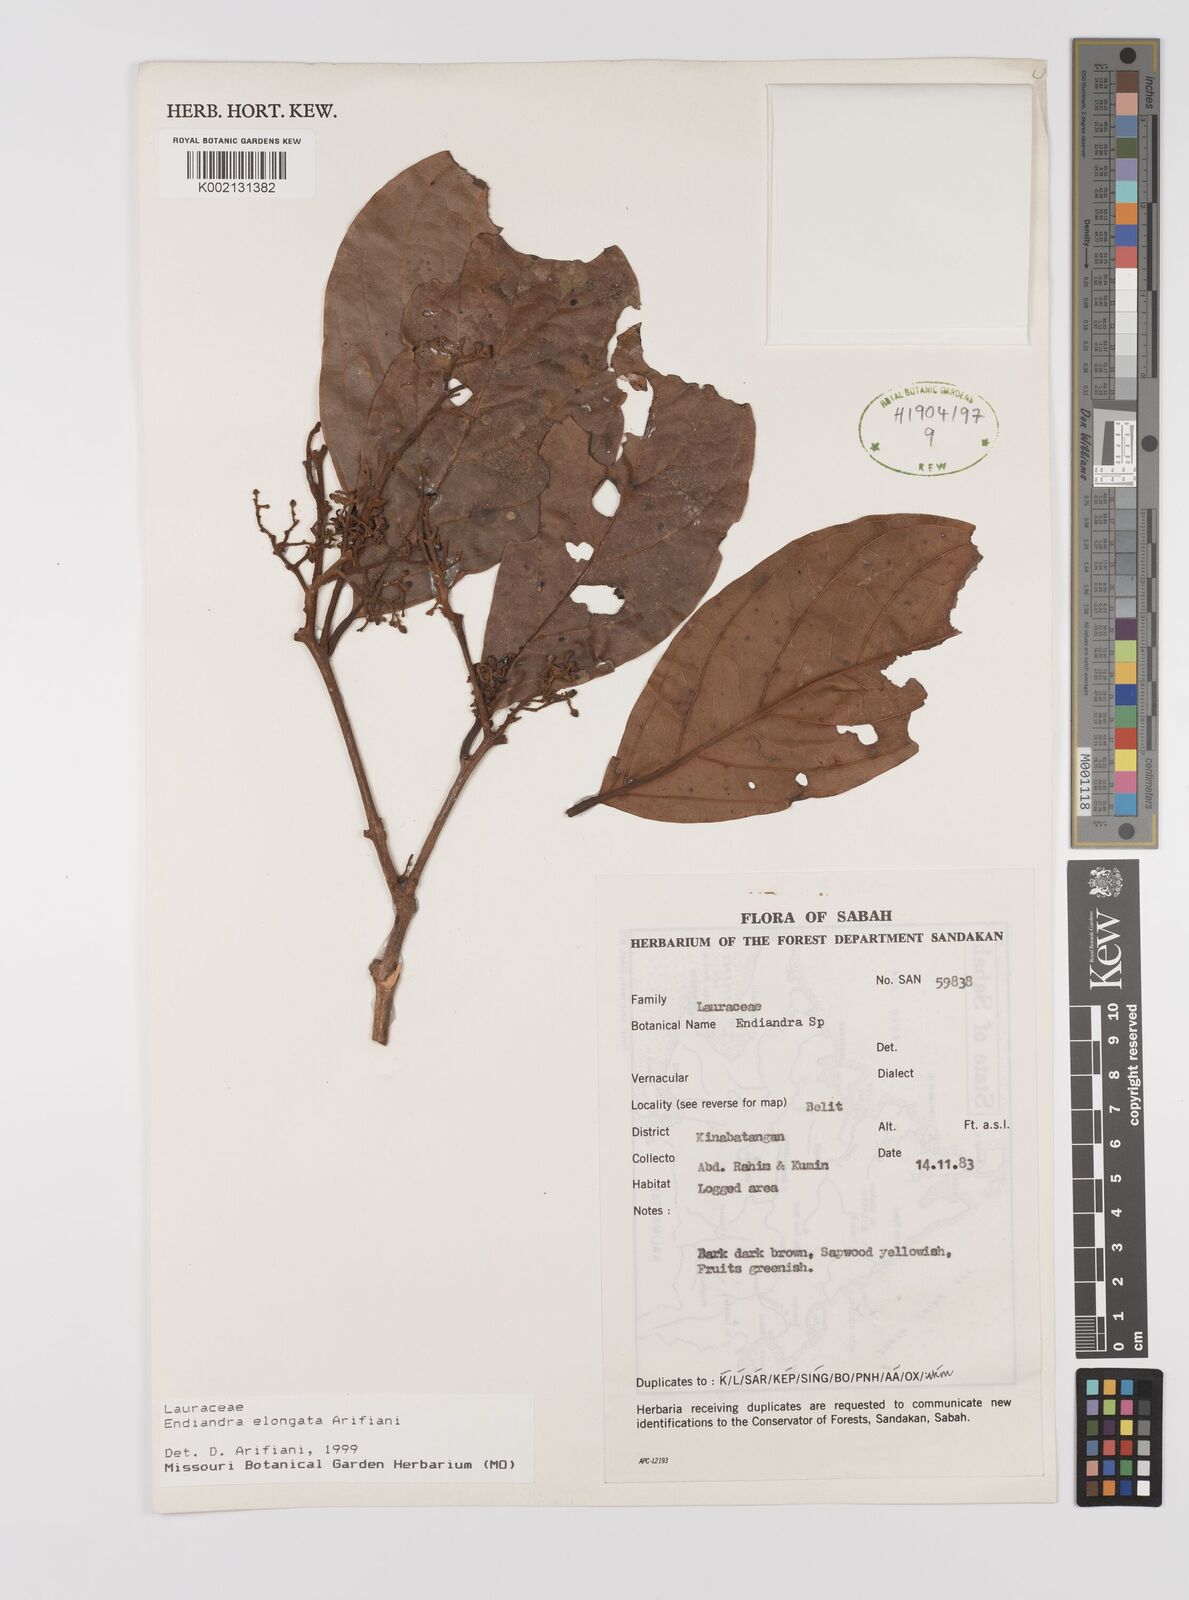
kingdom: Plantae
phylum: Tracheophyta
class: Magnoliopsida
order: Laurales
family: Lauraceae
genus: Endiandra
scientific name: Endiandra elongata
